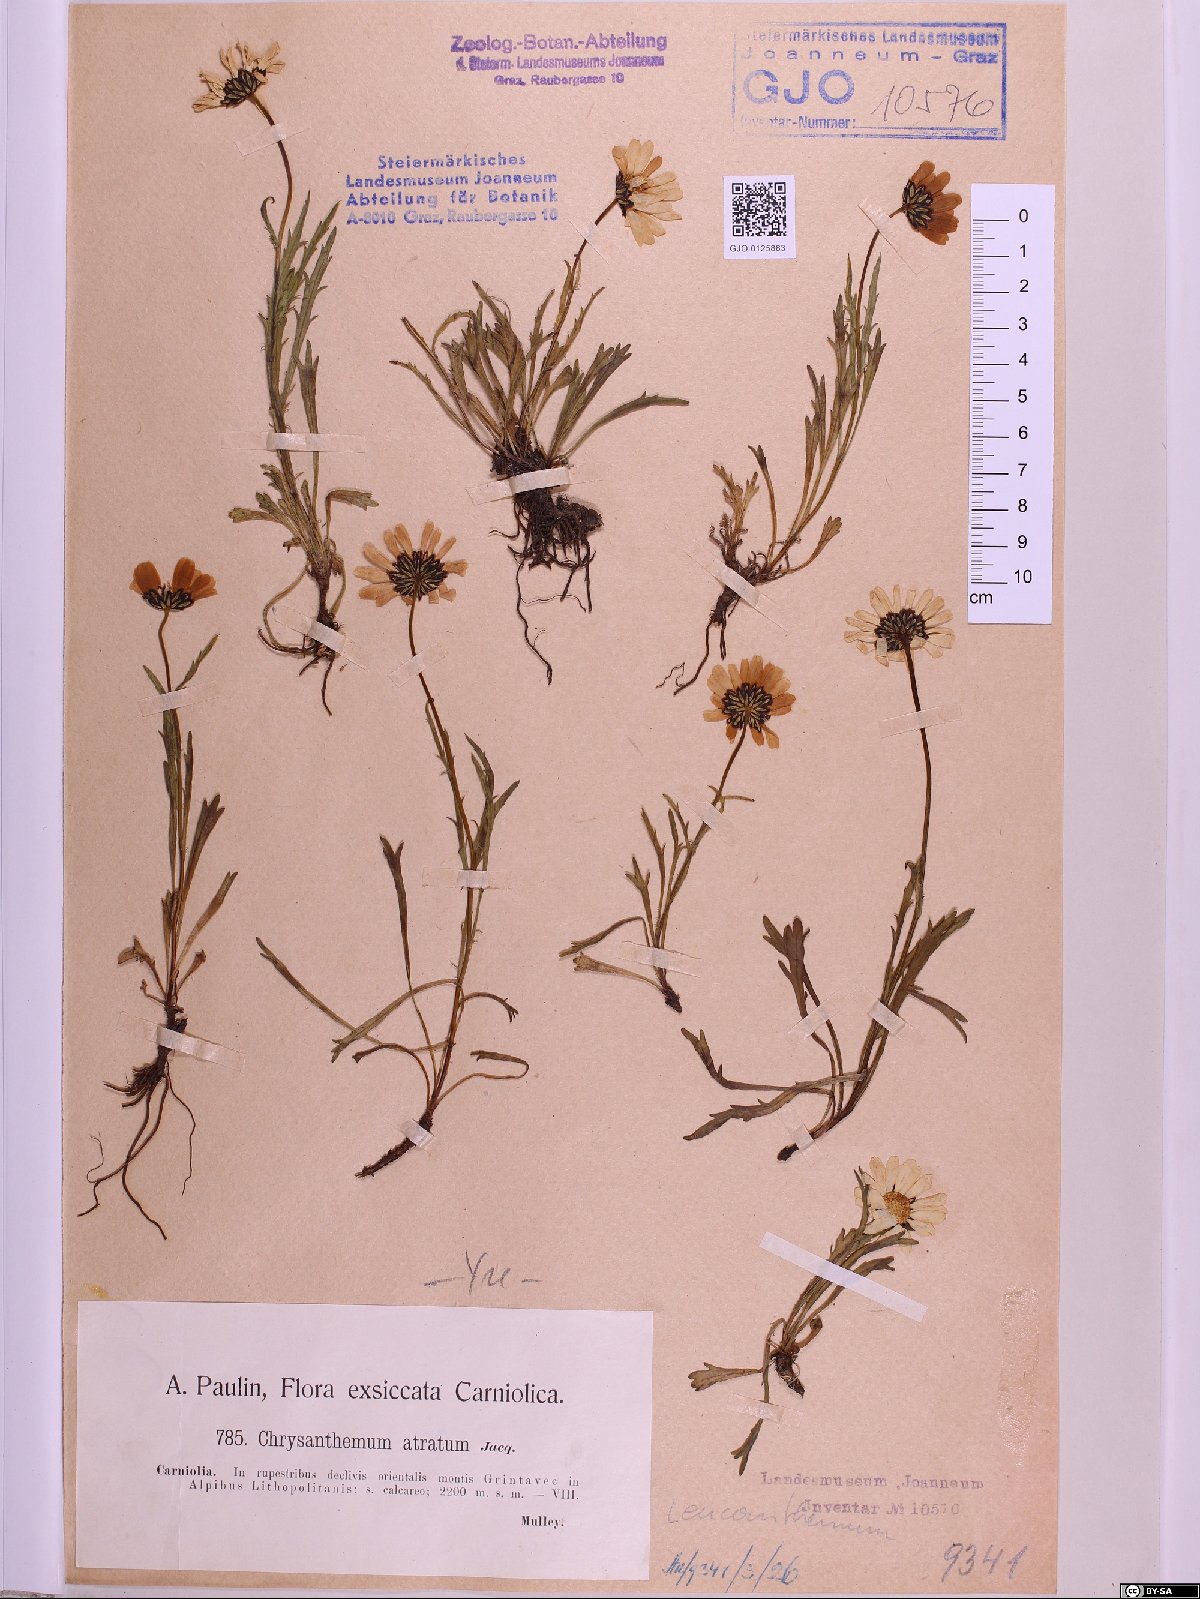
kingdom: Plantae
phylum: Tracheophyta
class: Magnoliopsida
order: Asterales
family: Asteraceae
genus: Leucanthemum
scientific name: Leucanthemum atratum
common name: Saw-leaved moon-daisy
